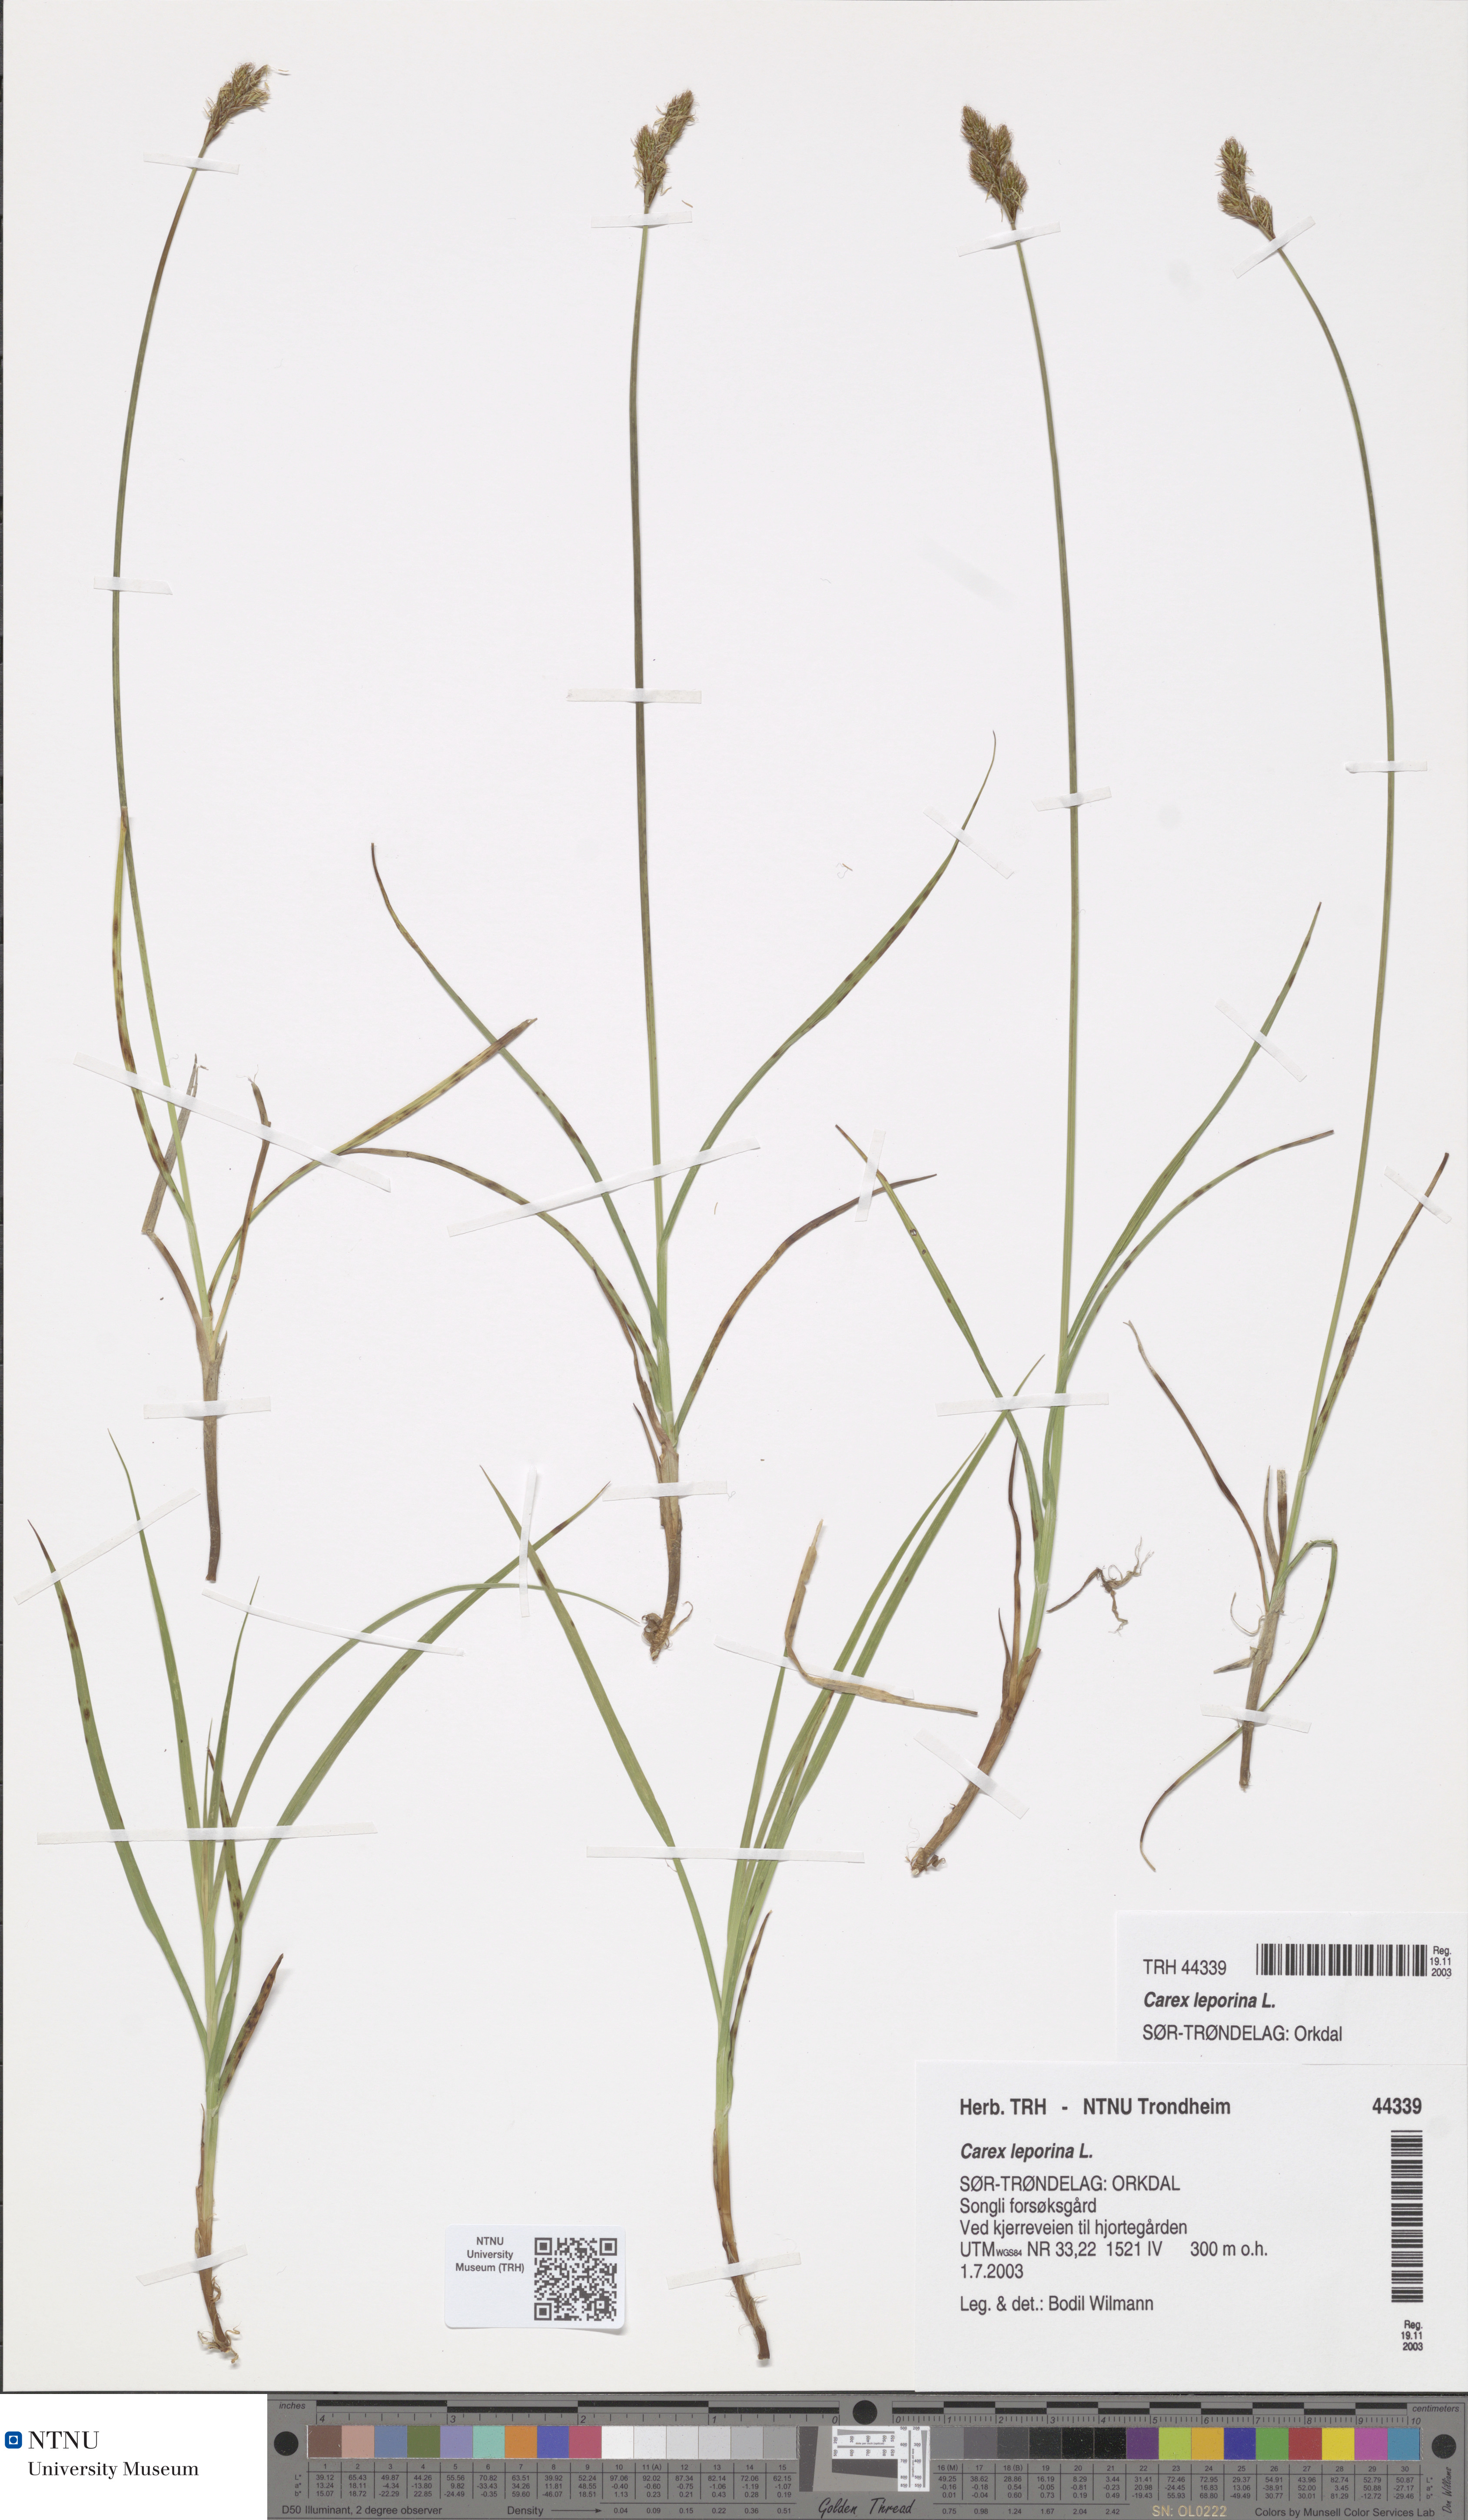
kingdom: Plantae
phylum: Tracheophyta
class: Liliopsida
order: Poales
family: Cyperaceae
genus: Carex
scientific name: Carex leporina
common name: Oval sedge
